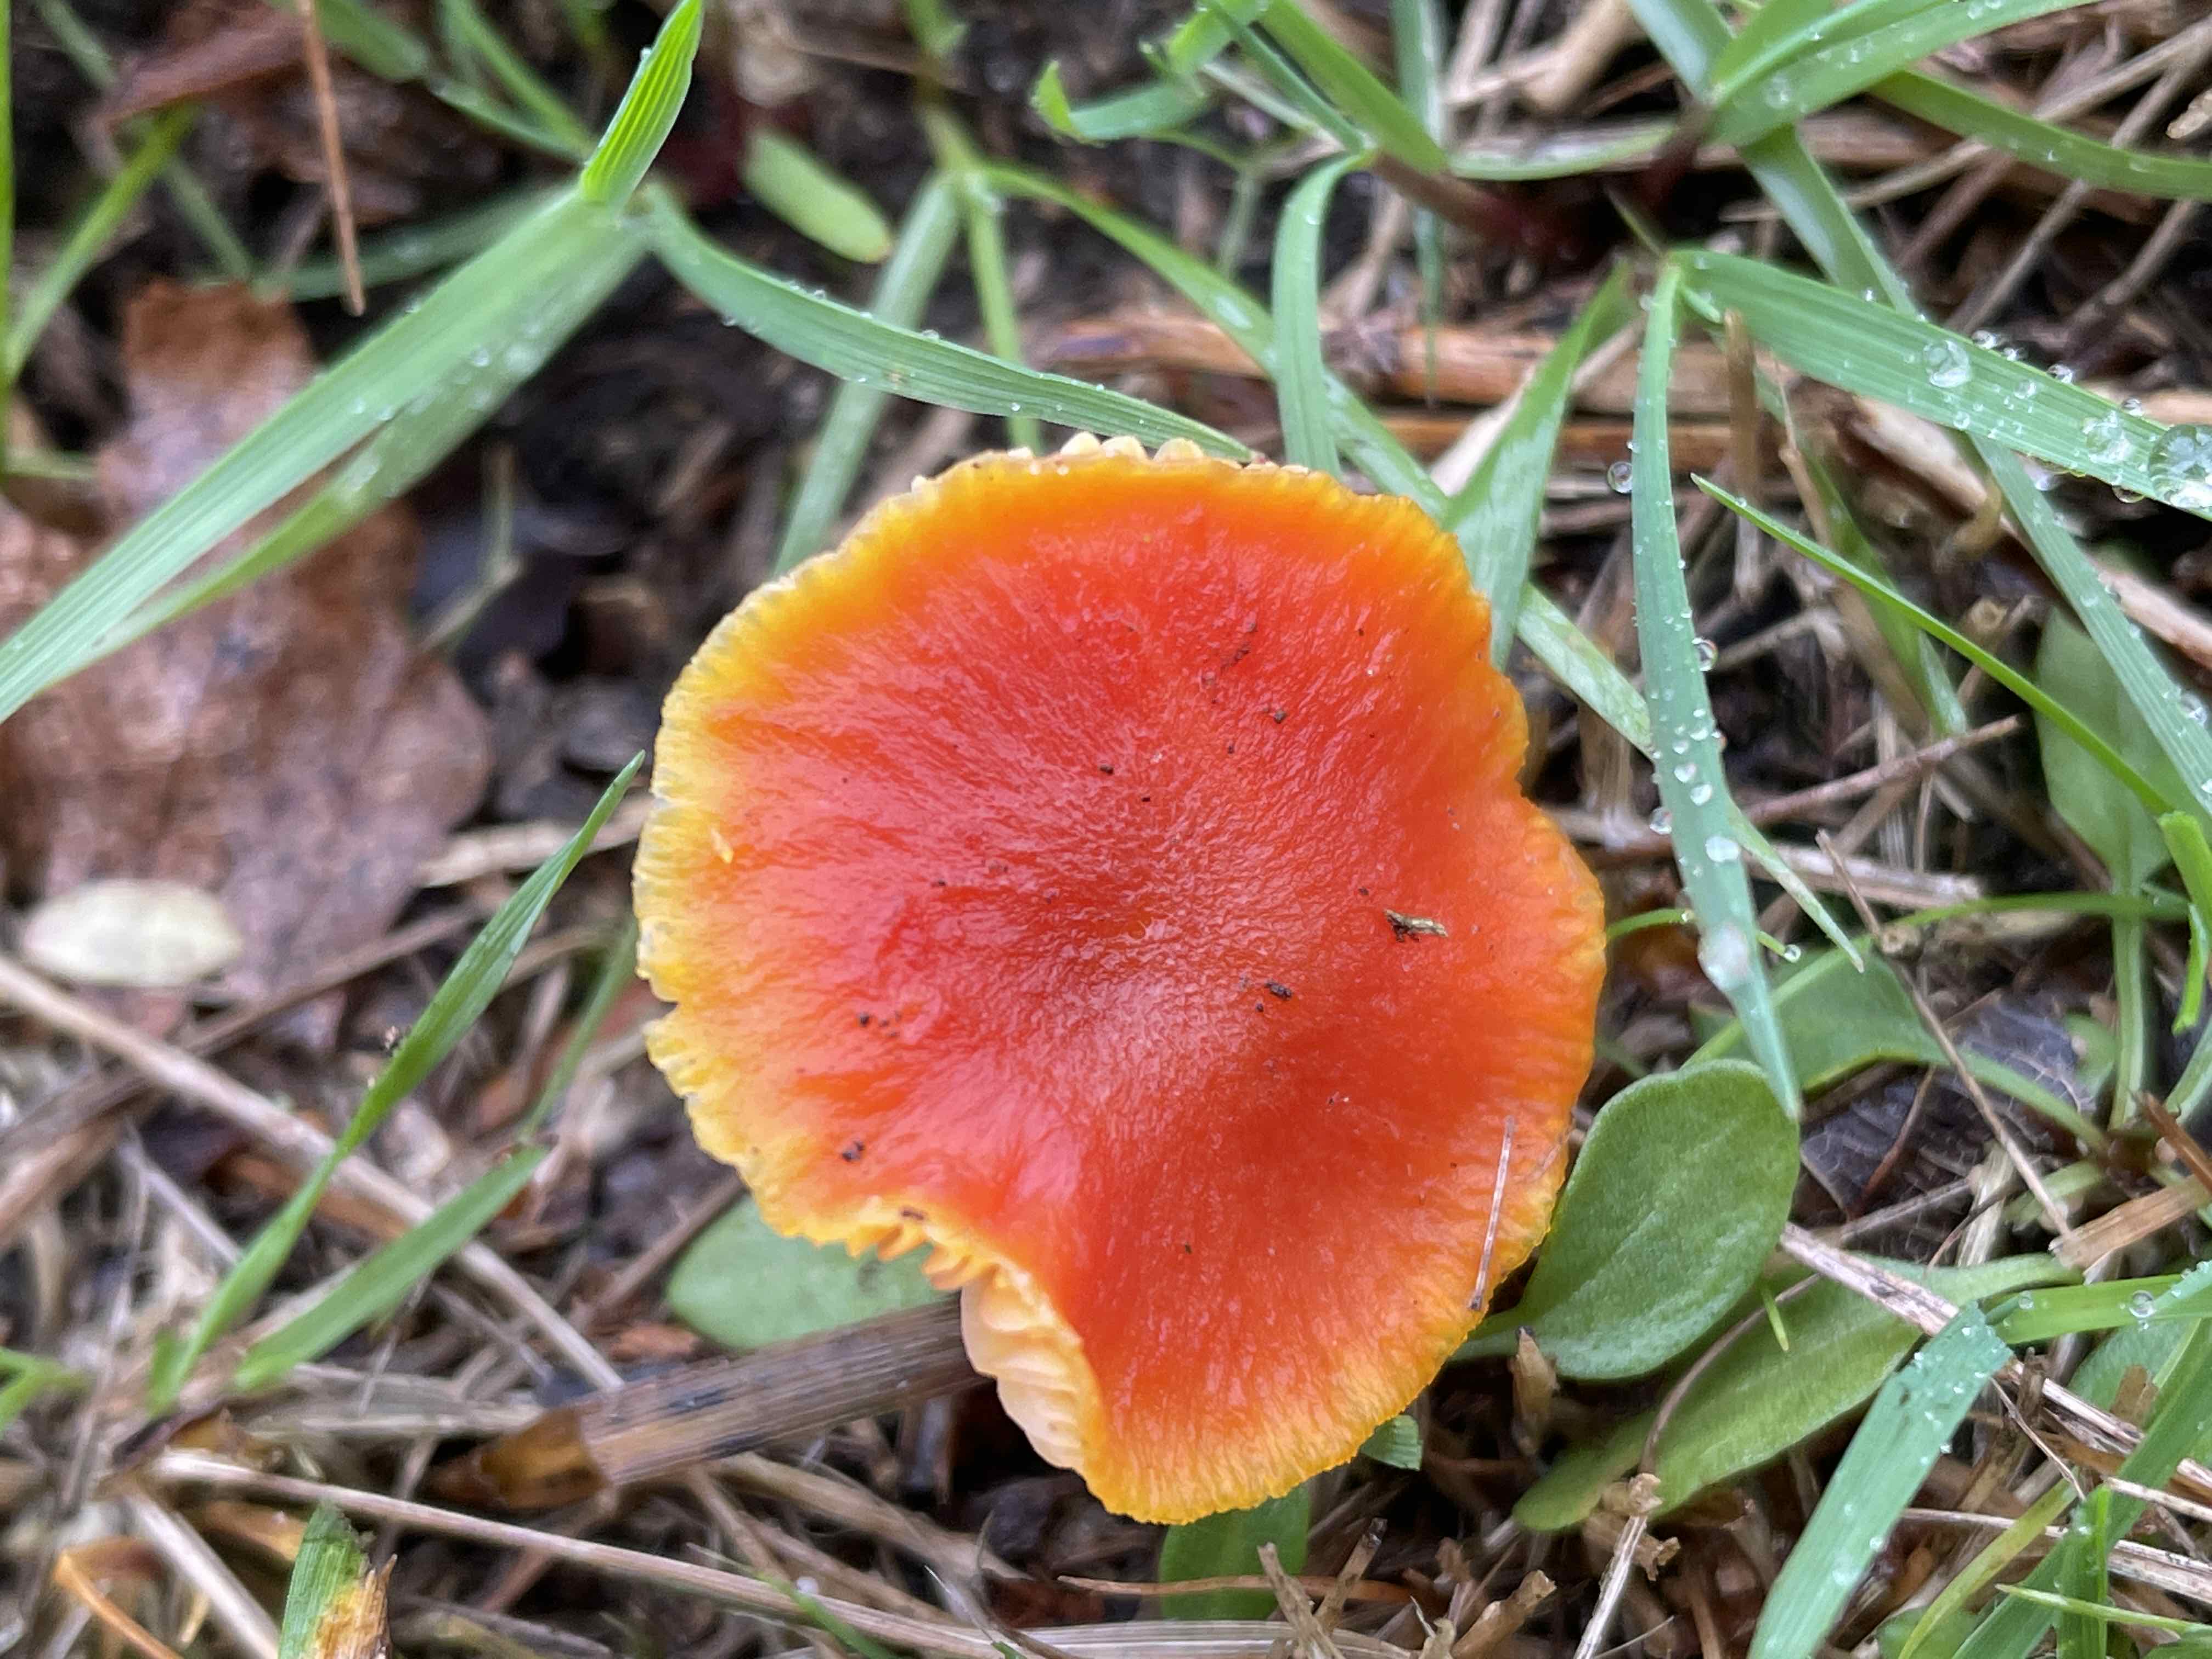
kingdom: Fungi
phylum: Basidiomycota
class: Agaricomycetes
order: Agaricales
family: Hygrophoraceae
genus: Hygrocybe
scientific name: Hygrocybe miniata
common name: mønje-vokshat
